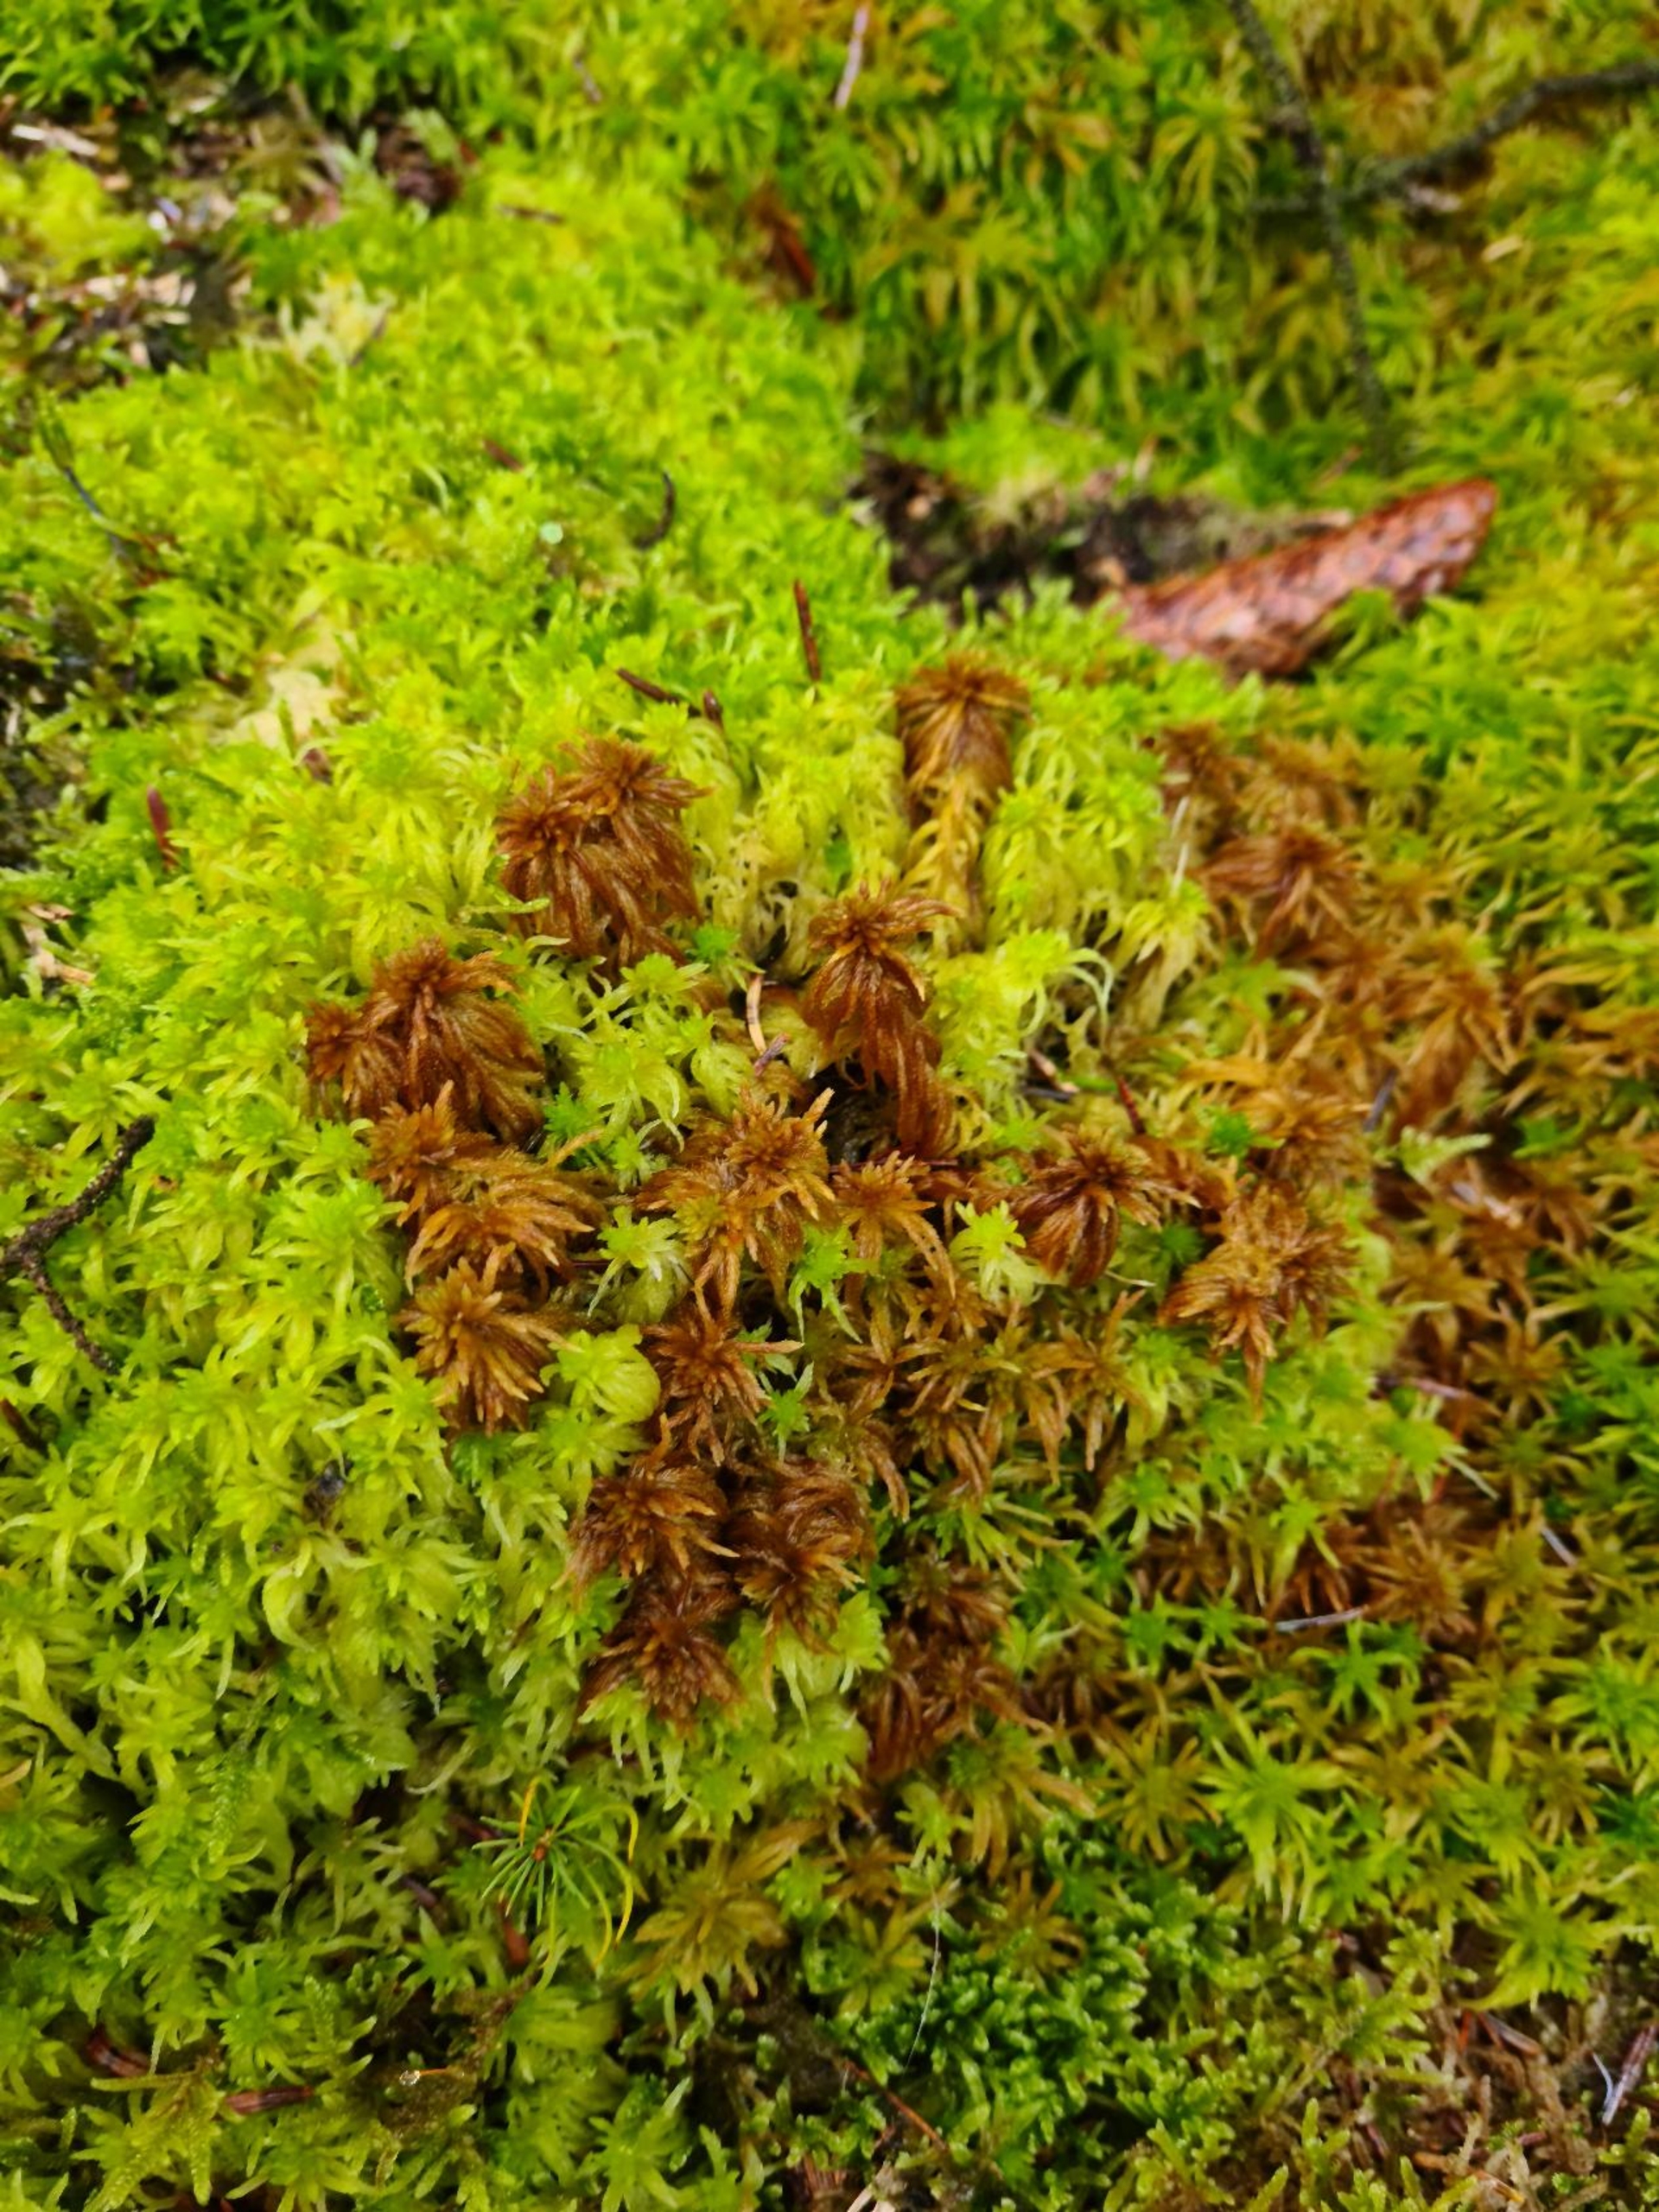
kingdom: Plantae
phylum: Bryophyta
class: Sphagnopsida
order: Sphagnales
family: Sphagnaceae
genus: Sphagnum
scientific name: Sphagnum teres
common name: Trindgrenet tørvemos
